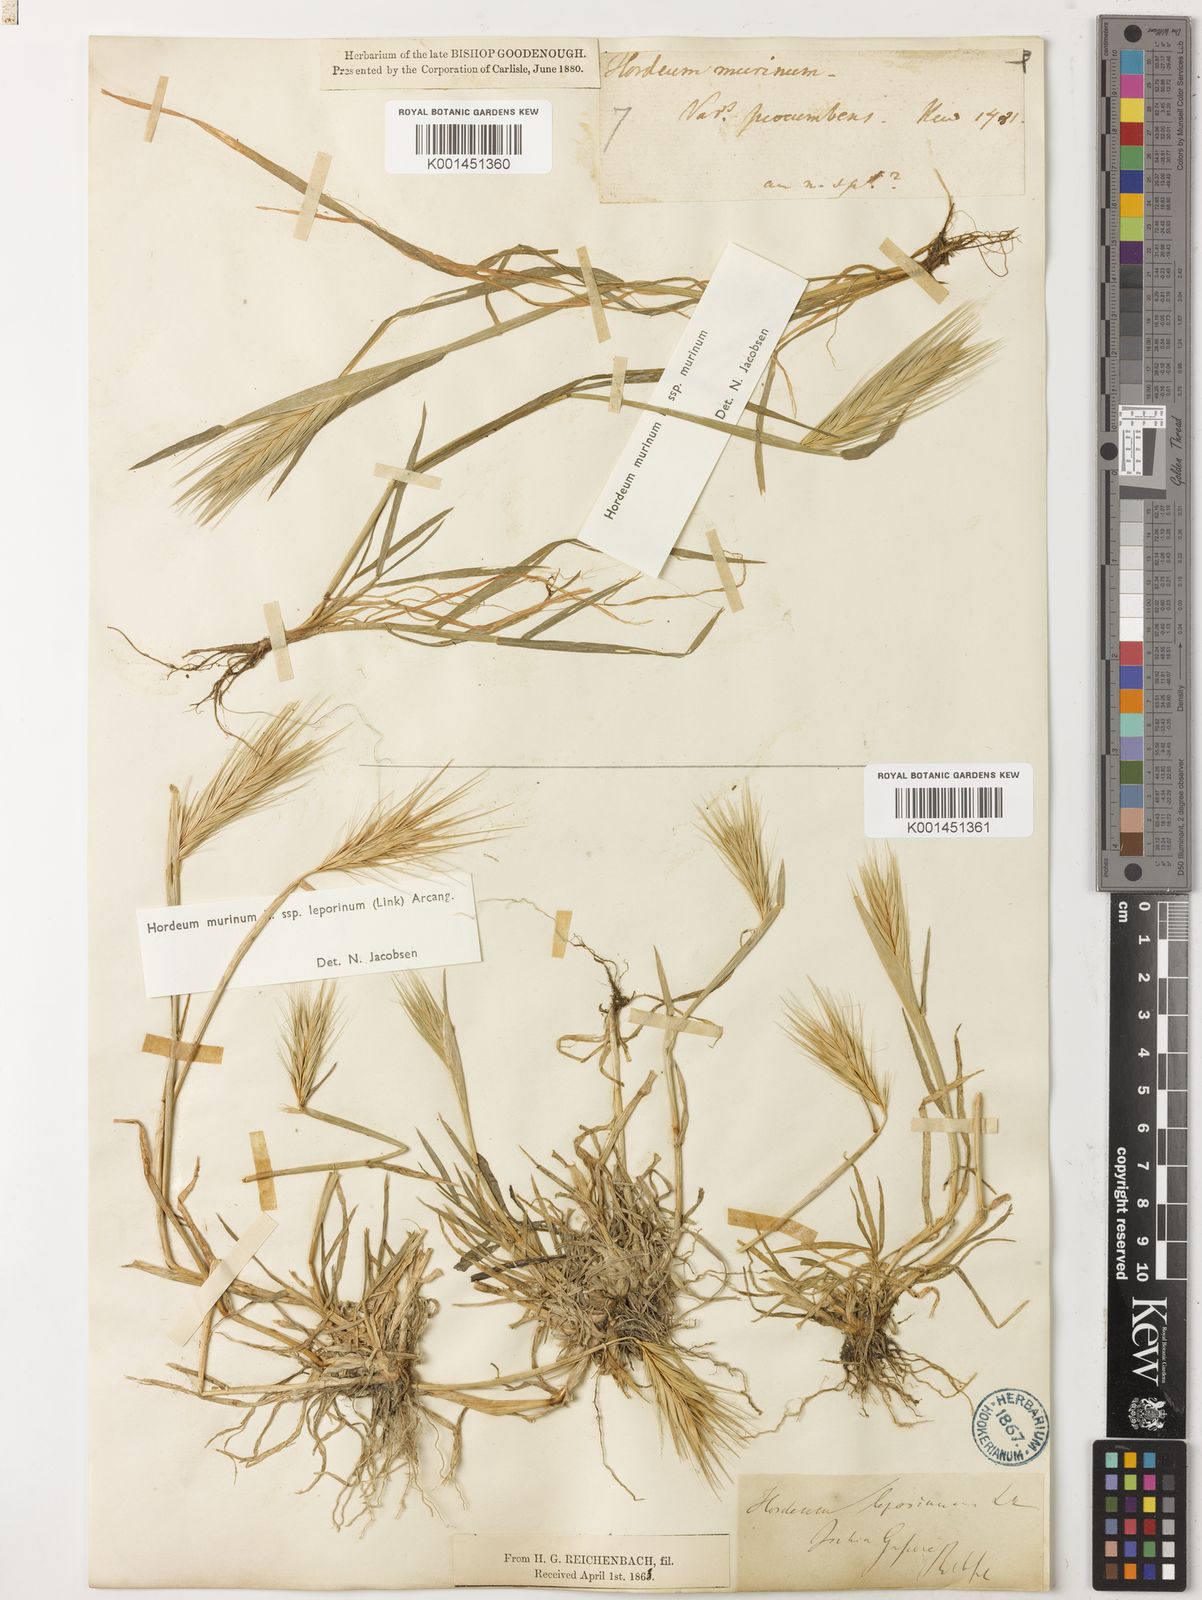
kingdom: Plantae
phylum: Tracheophyta
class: Liliopsida
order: Poales
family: Poaceae
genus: Hordeum
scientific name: Hordeum murinum
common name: Wall barley
